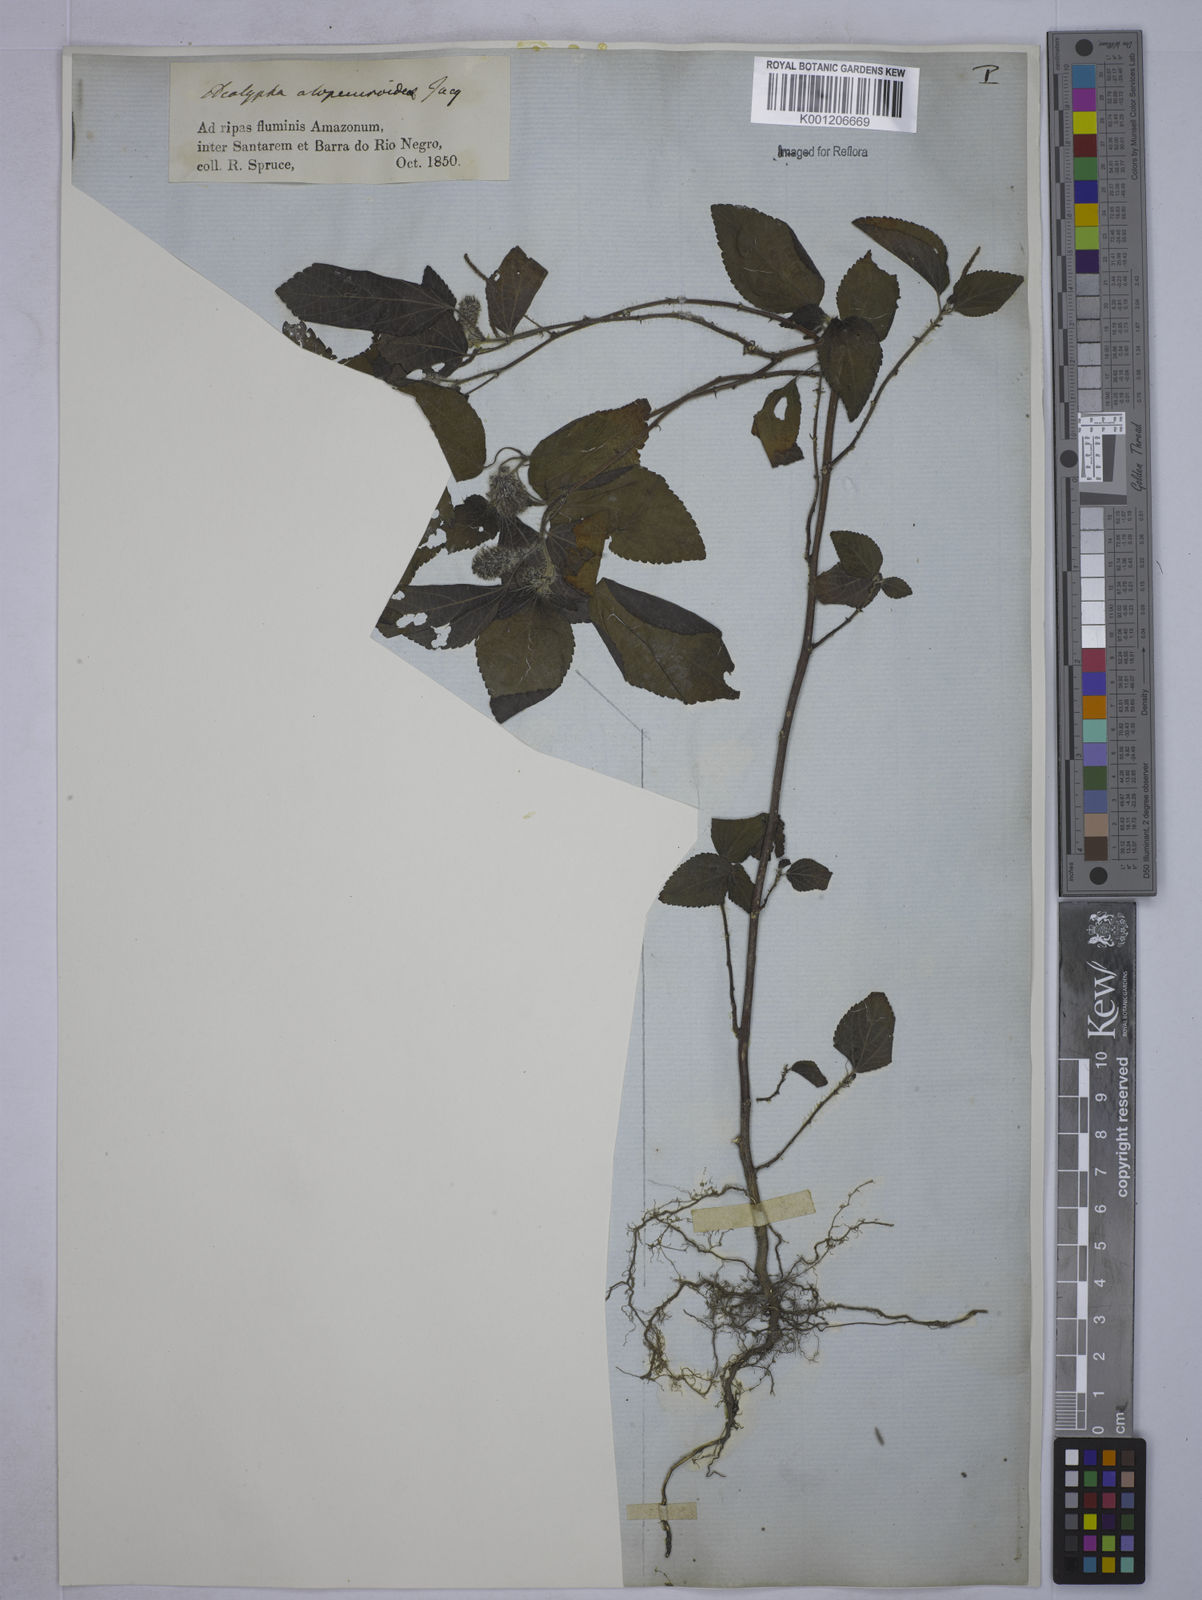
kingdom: Plantae
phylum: Tracheophyta
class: Magnoliopsida
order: Malpighiales
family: Euphorbiaceae
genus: Acalypha
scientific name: Acalypha arvensis
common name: Field copperleaf
